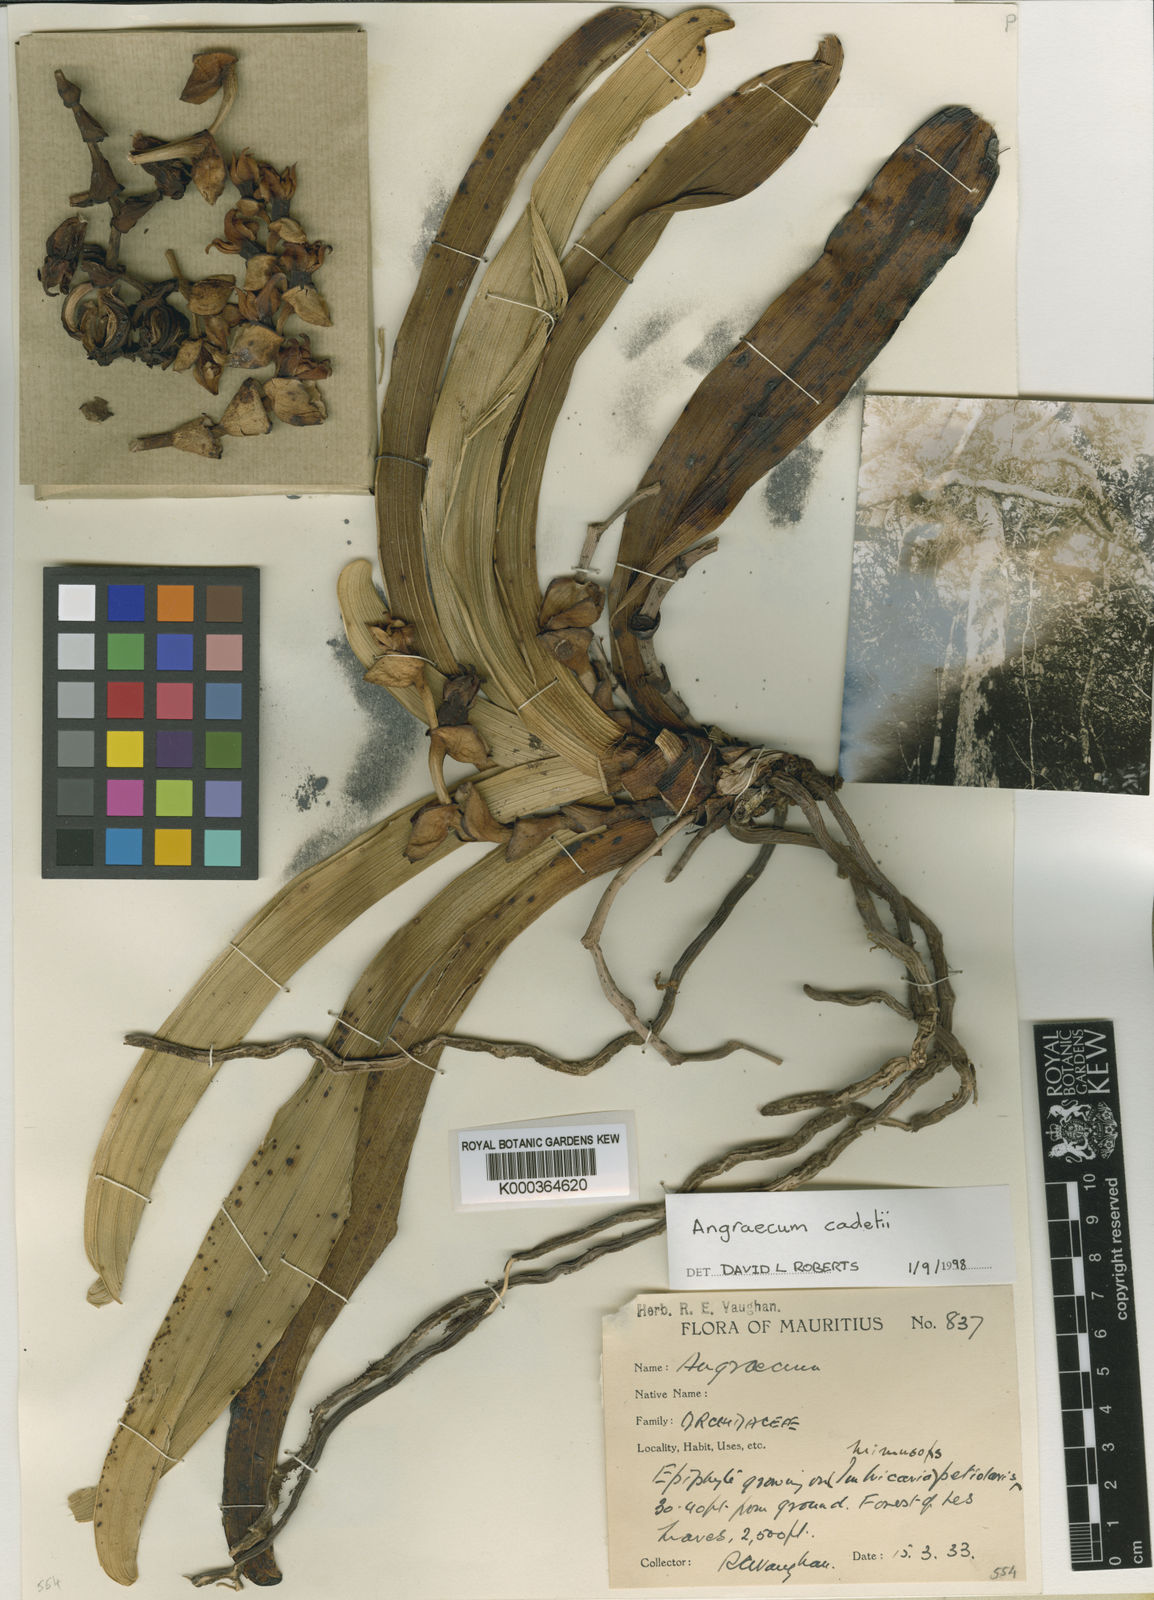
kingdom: Plantae
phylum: Tracheophyta
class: Liliopsida
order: Asparagales
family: Orchidaceae
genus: Angraecum
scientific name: Angraecum cadetii
